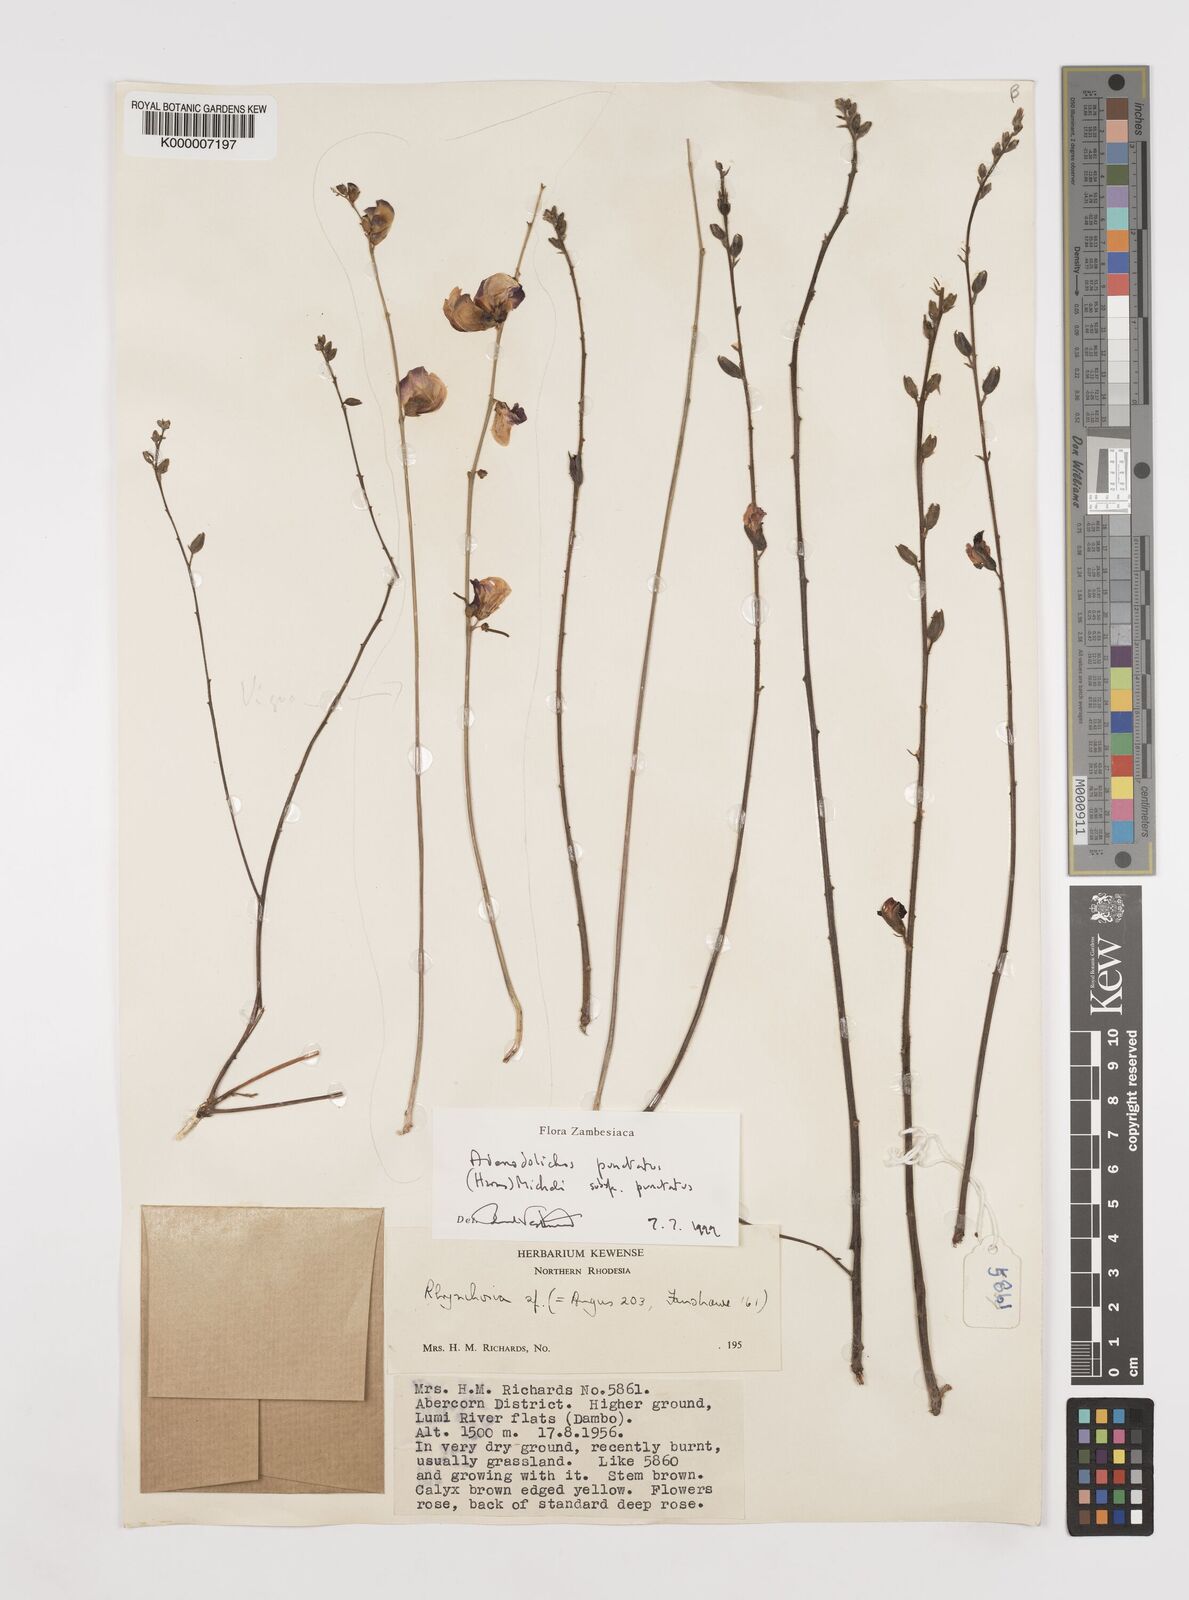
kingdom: Plantae
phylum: Tracheophyta
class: Magnoliopsida
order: Fabales
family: Fabaceae
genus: Adenodolichos
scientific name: Adenodolichos punctatus
